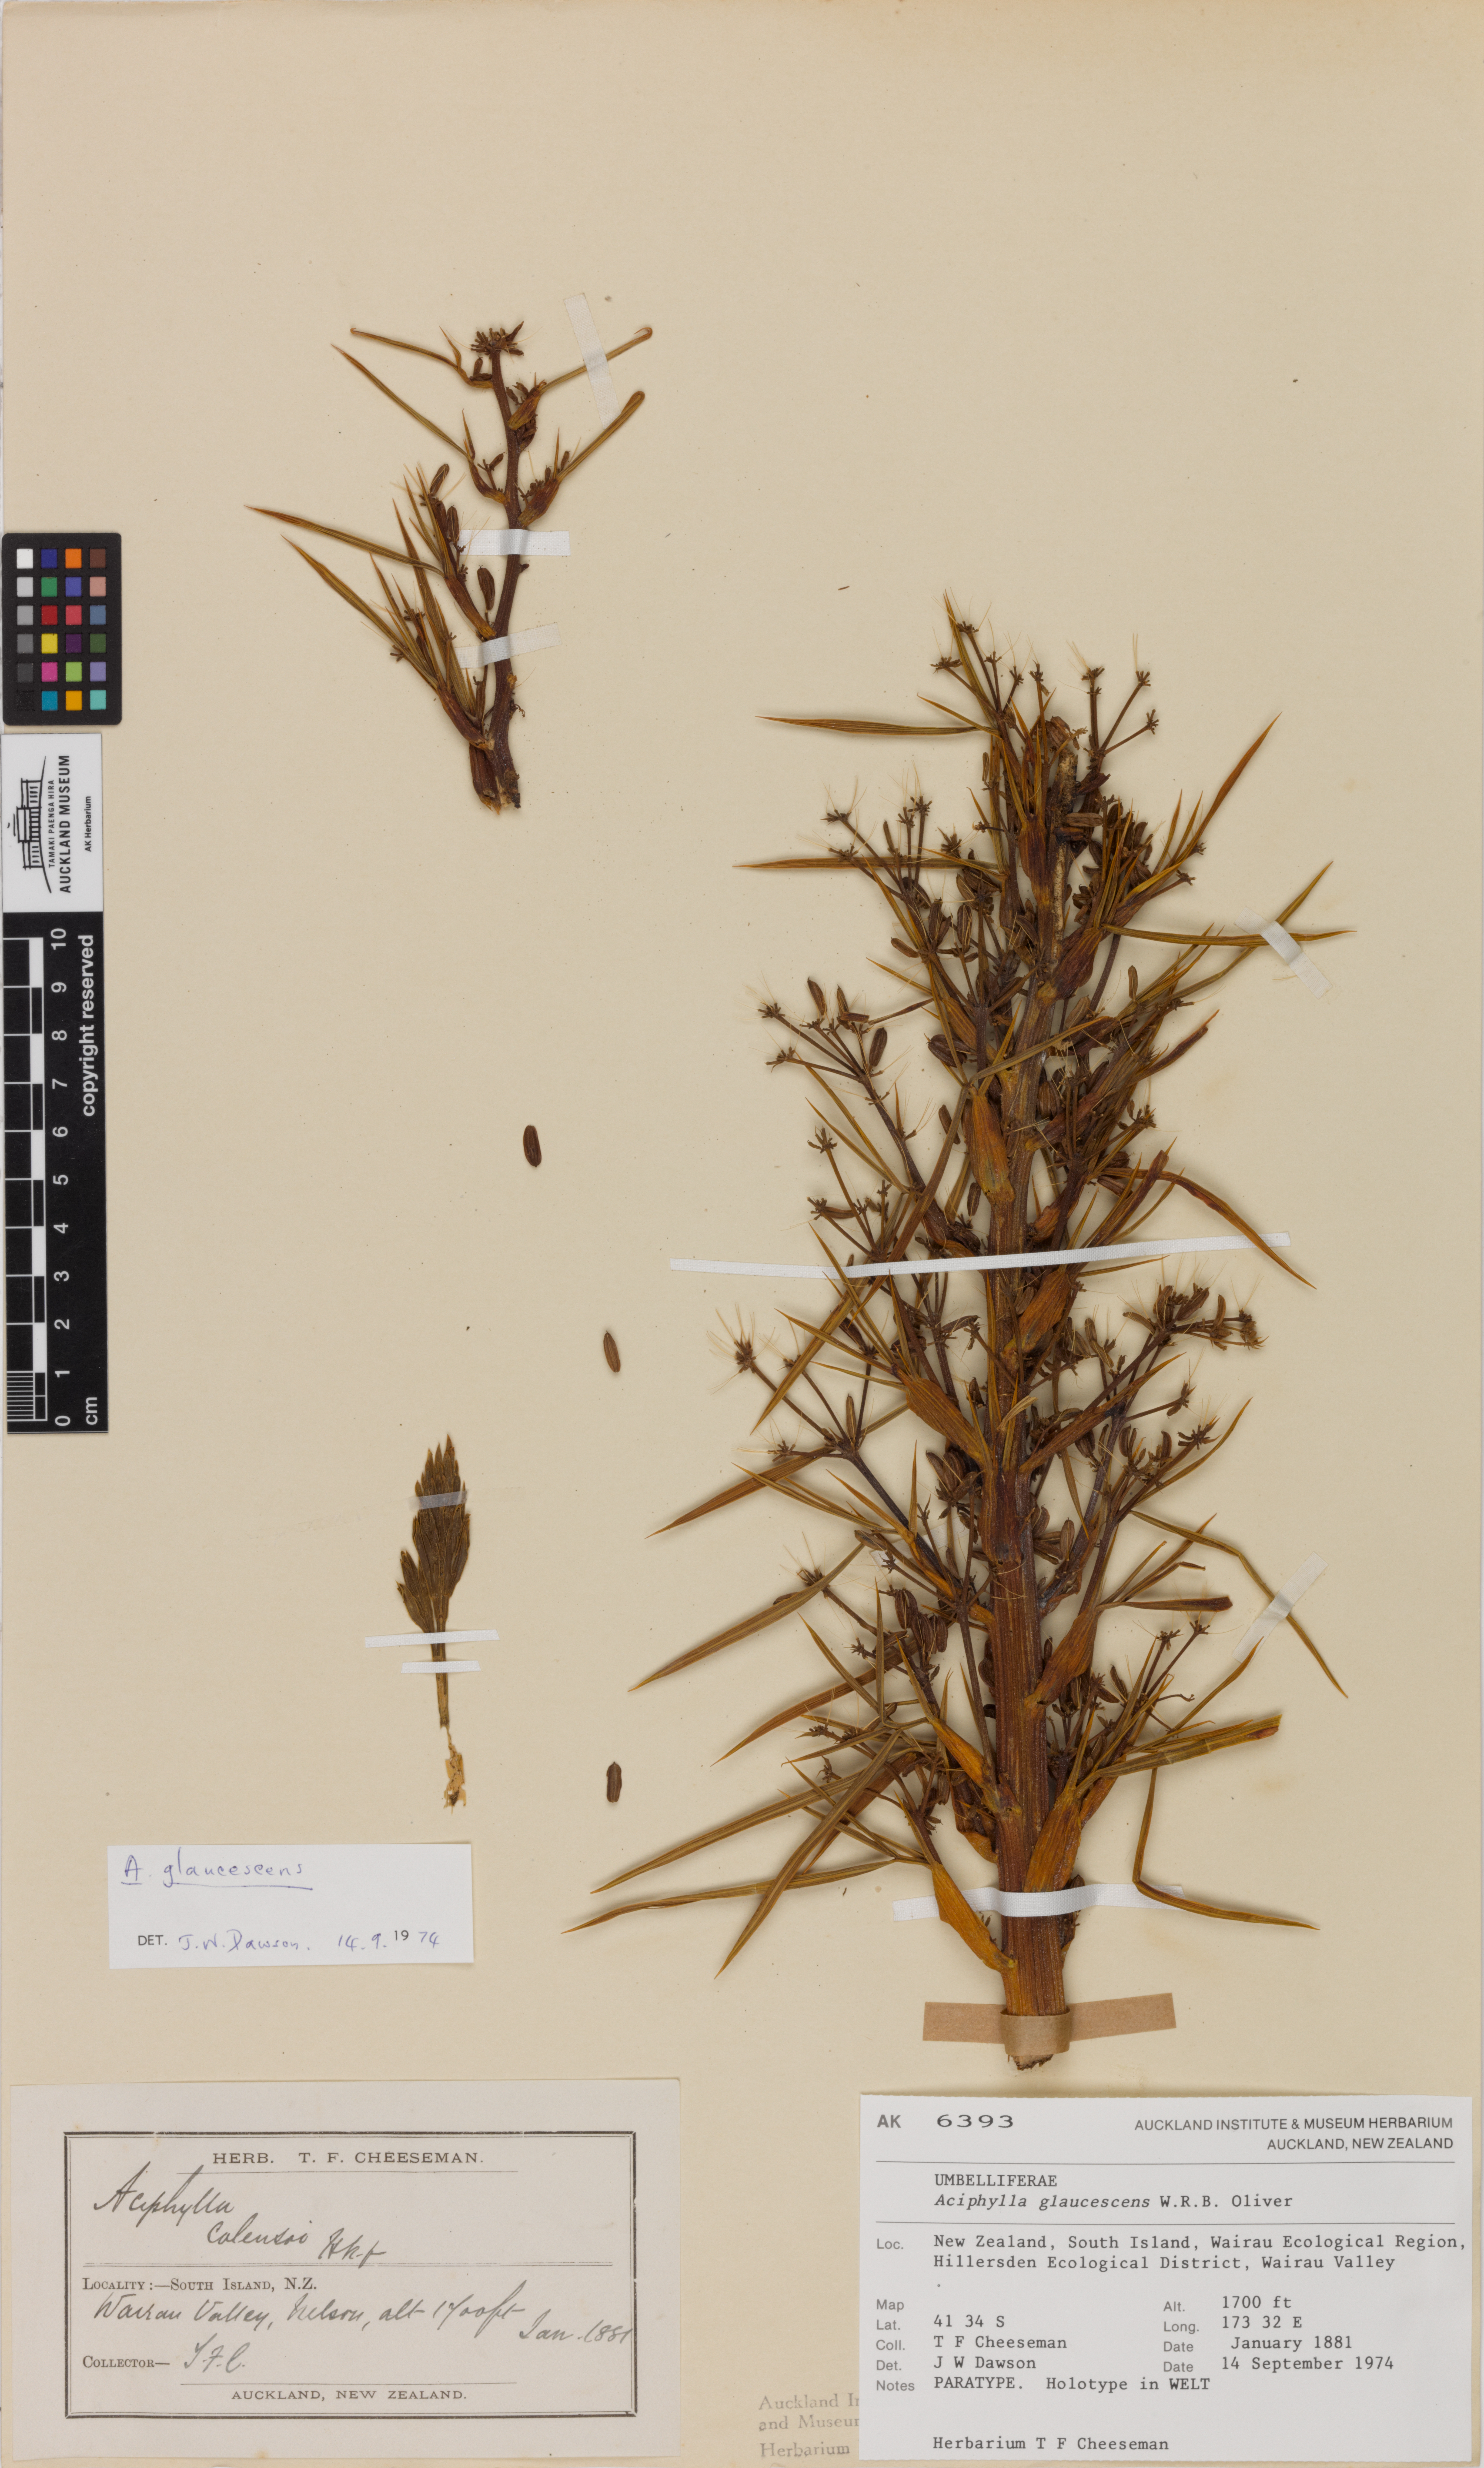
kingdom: Plantae
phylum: Tracheophyta
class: Magnoliopsida
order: Apiales
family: Apiaceae
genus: Aciphylla
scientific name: Aciphylla glaucescens
